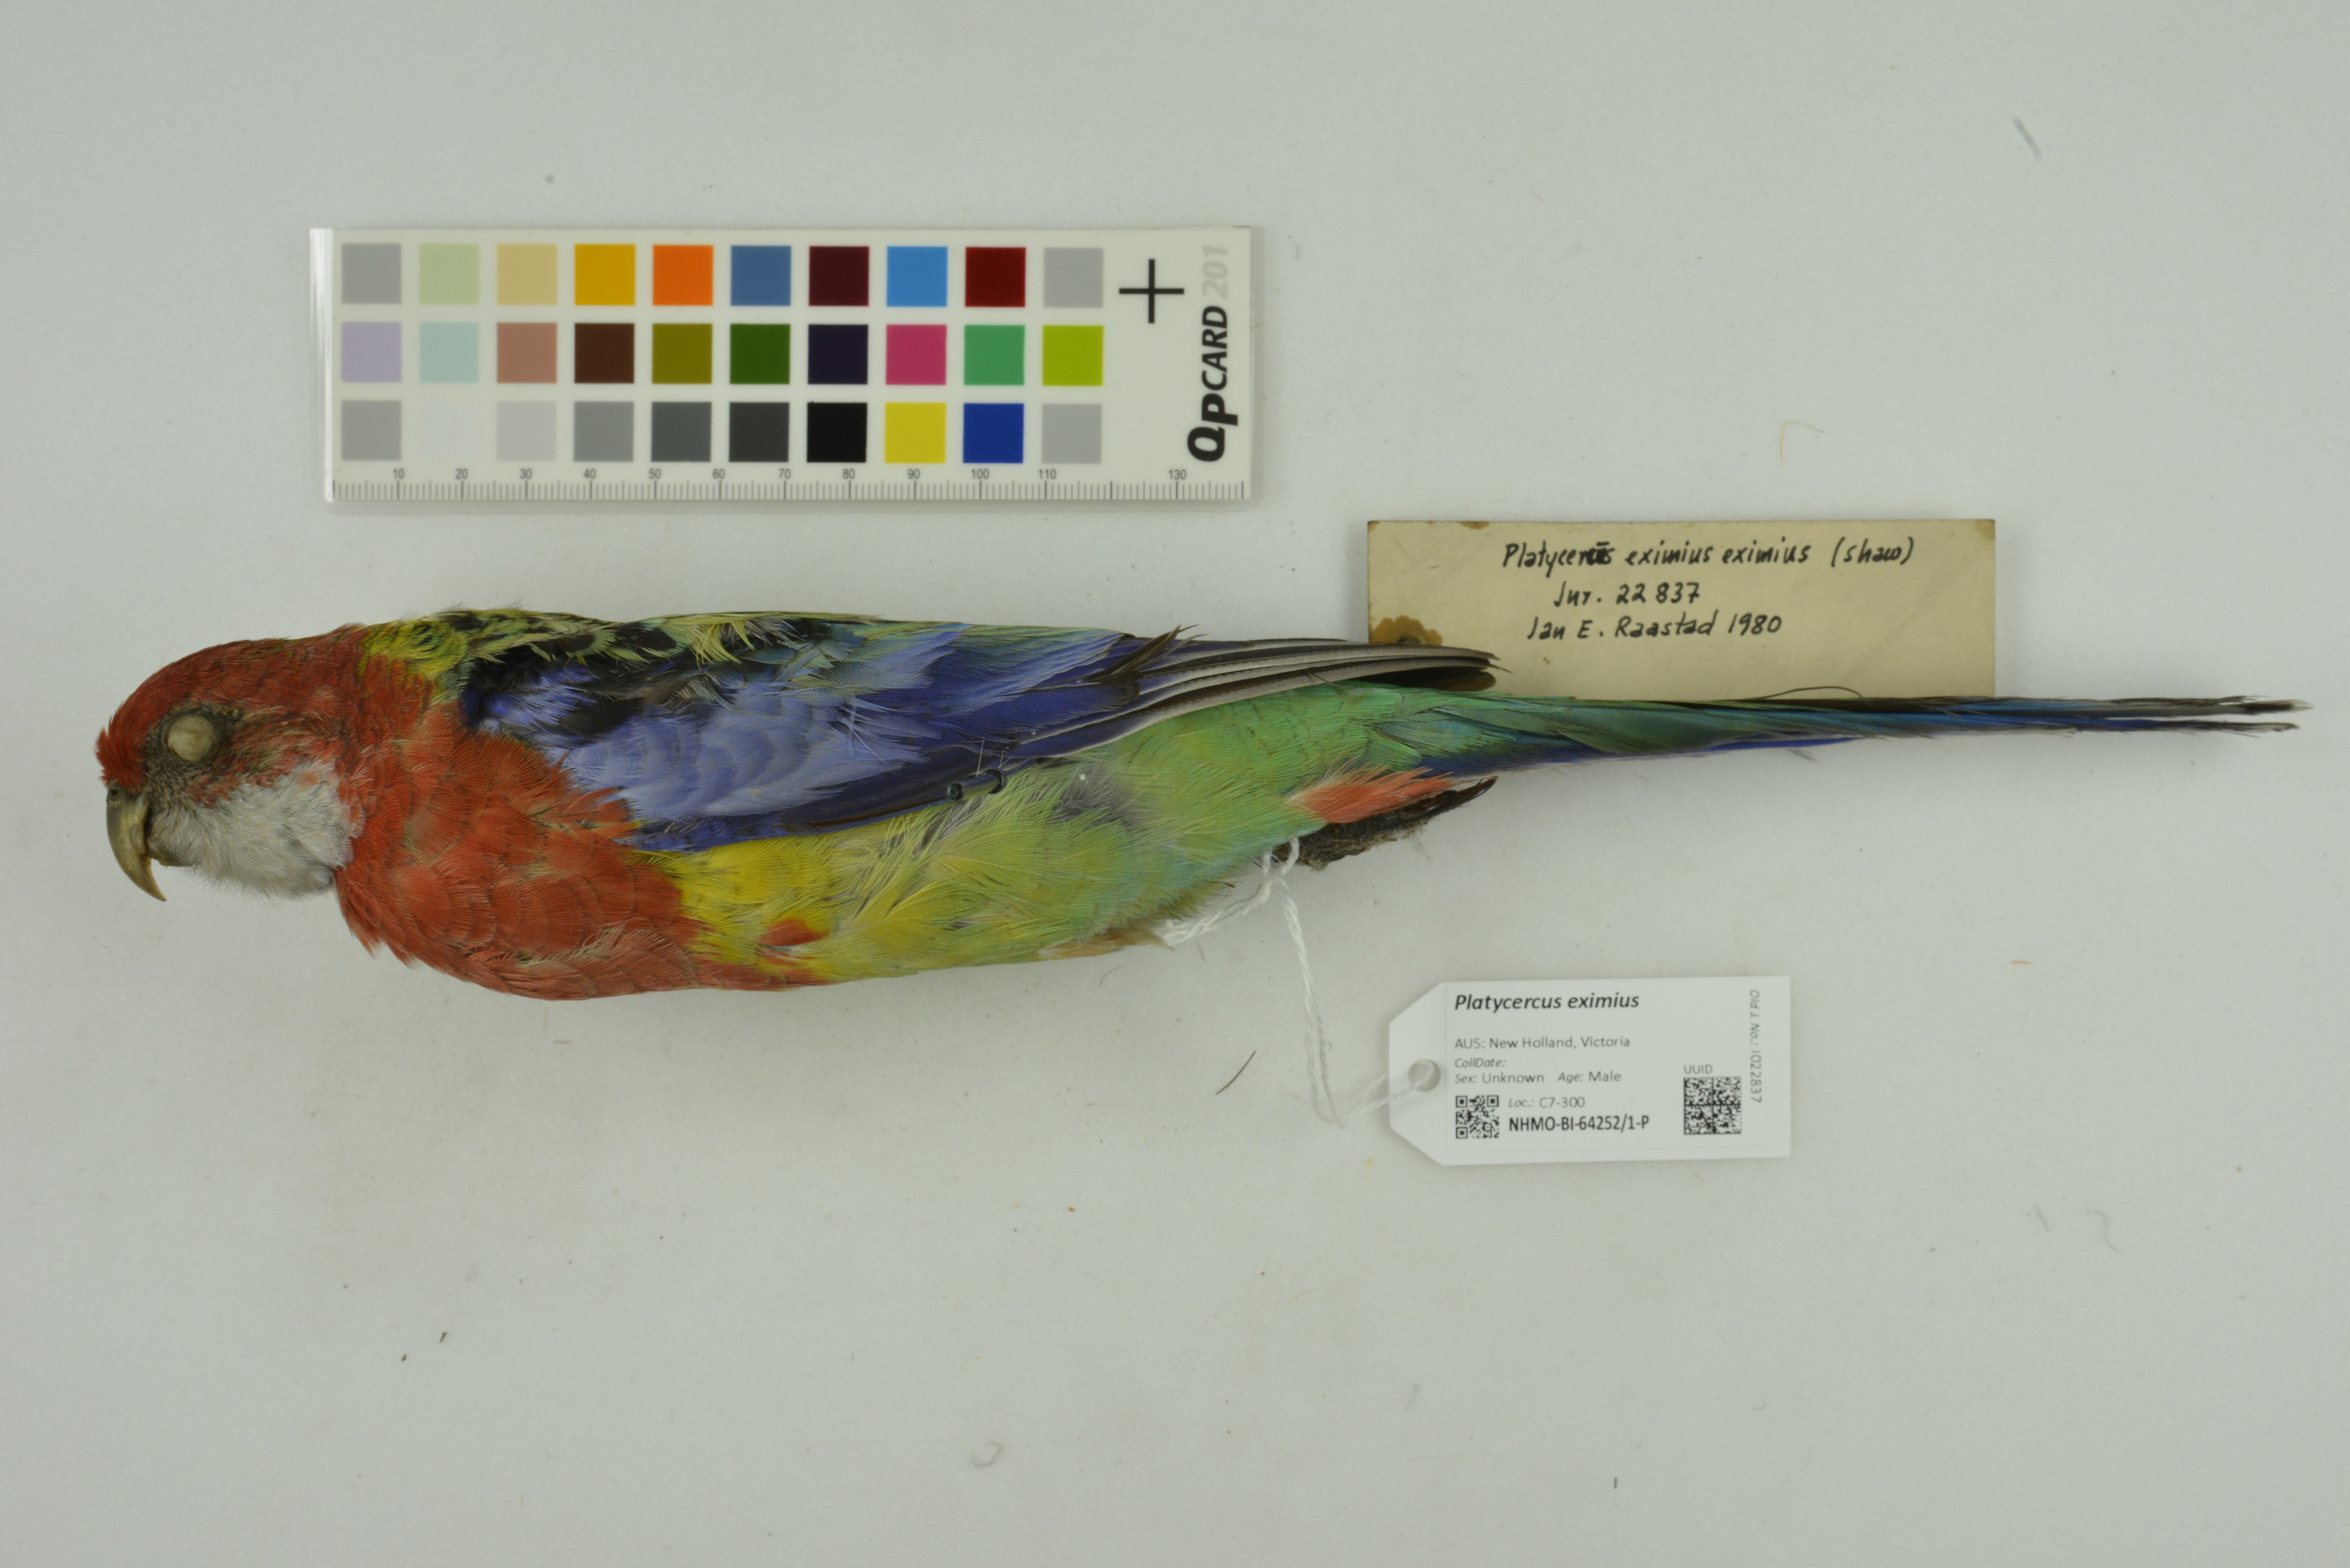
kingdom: Animalia
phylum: Chordata
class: Aves
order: Psittaciformes
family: Psittacidae
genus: Platycercus
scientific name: Platycercus eximius
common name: Eastern rosella
